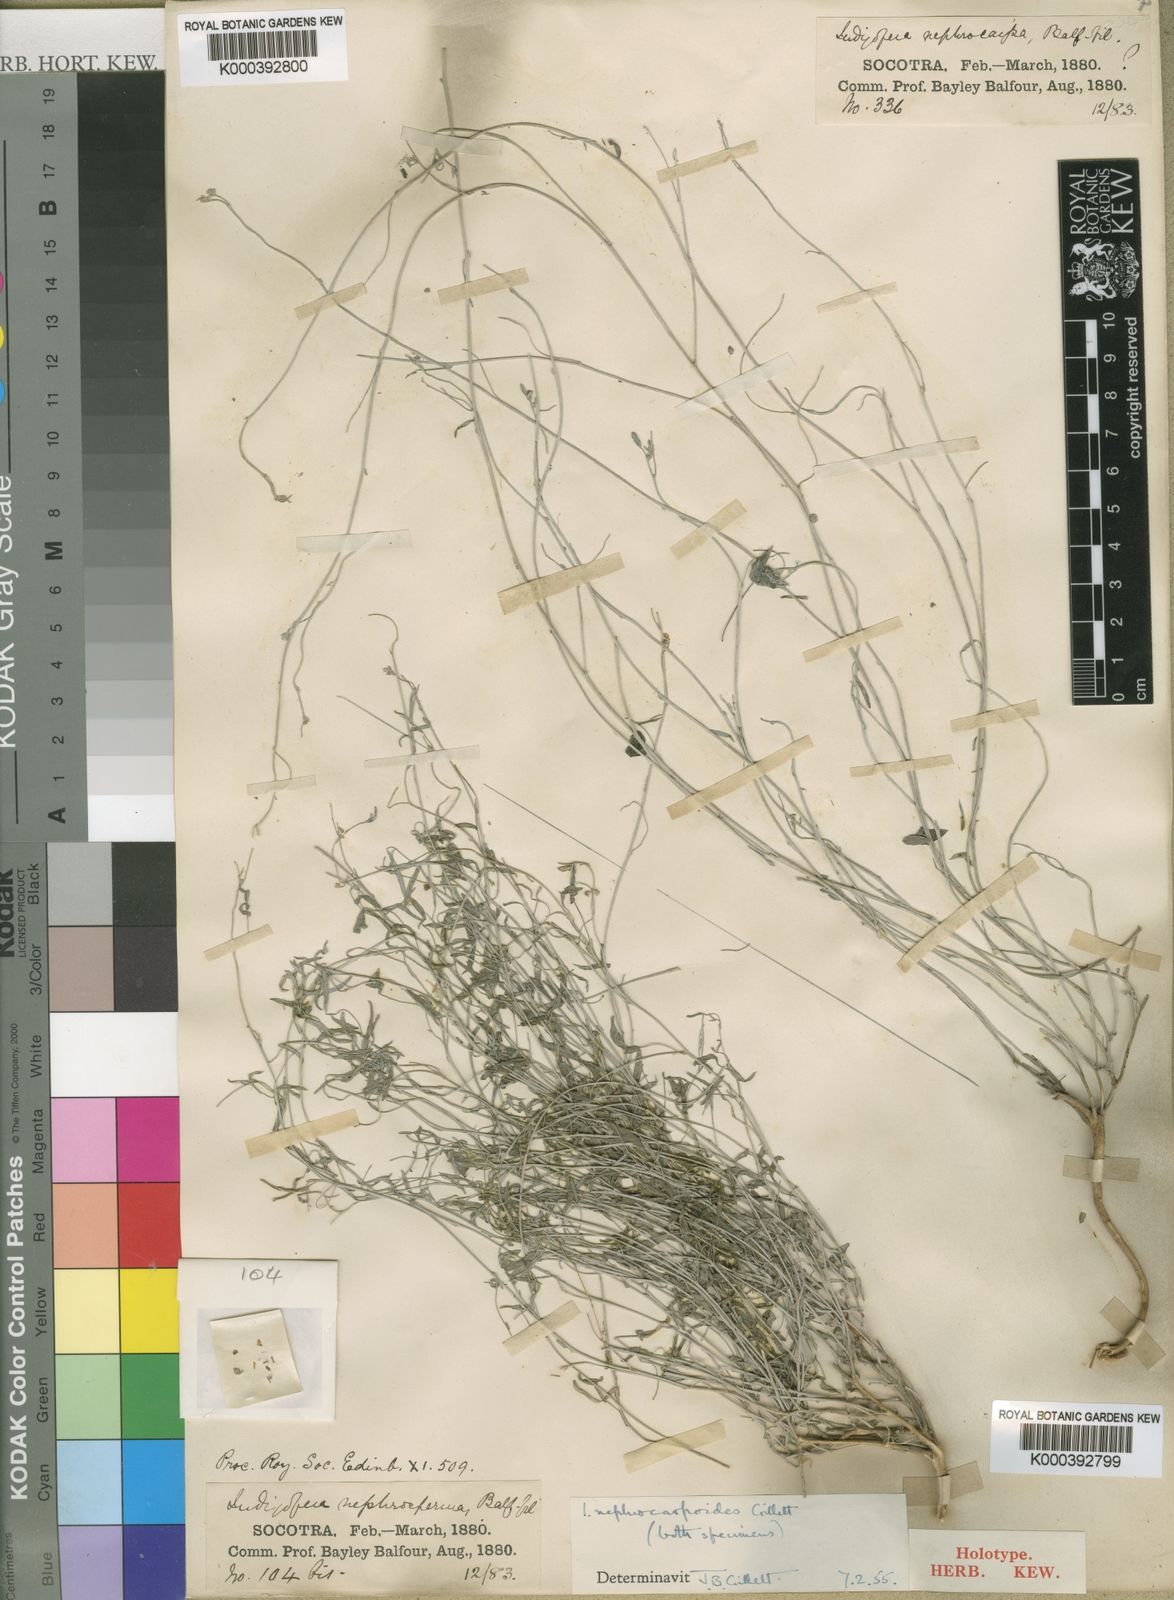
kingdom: Plantae
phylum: Tracheophyta
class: Magnoliopsida
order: Fabales
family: Fabaceae
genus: Indigofera
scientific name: Indigofera nephrocarpoides
